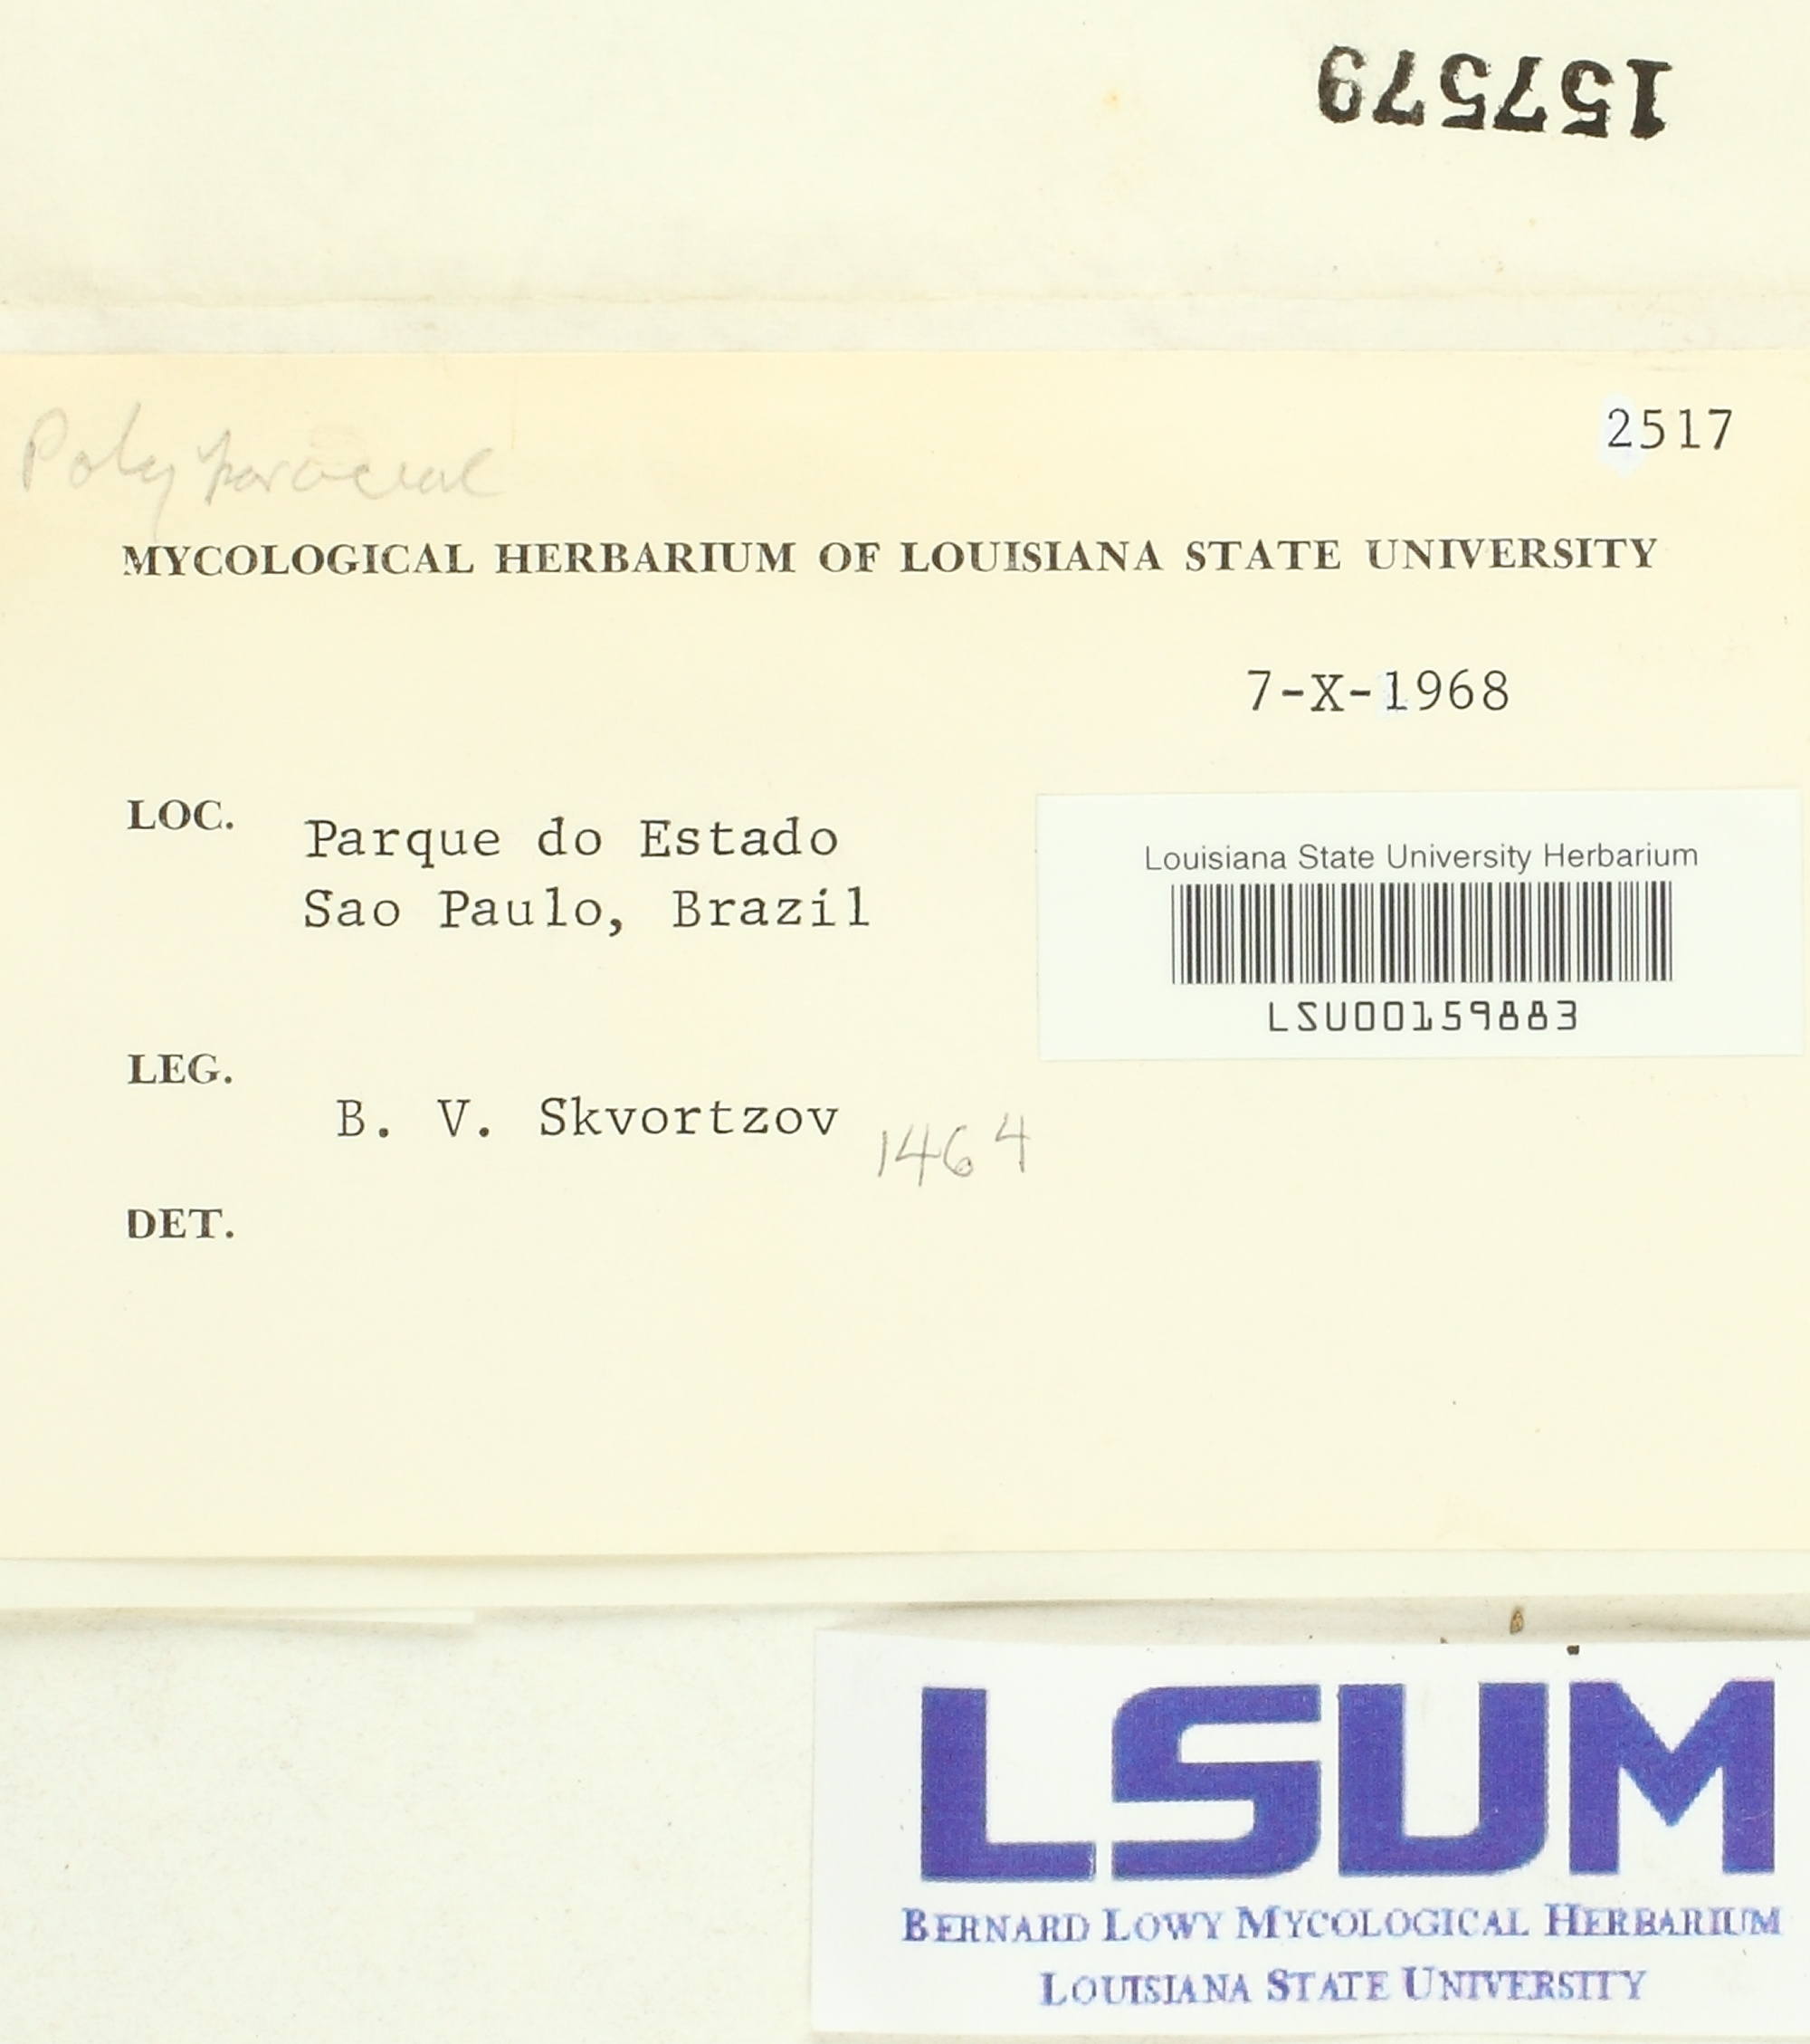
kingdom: Fungi
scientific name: Fungi
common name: Fungi
